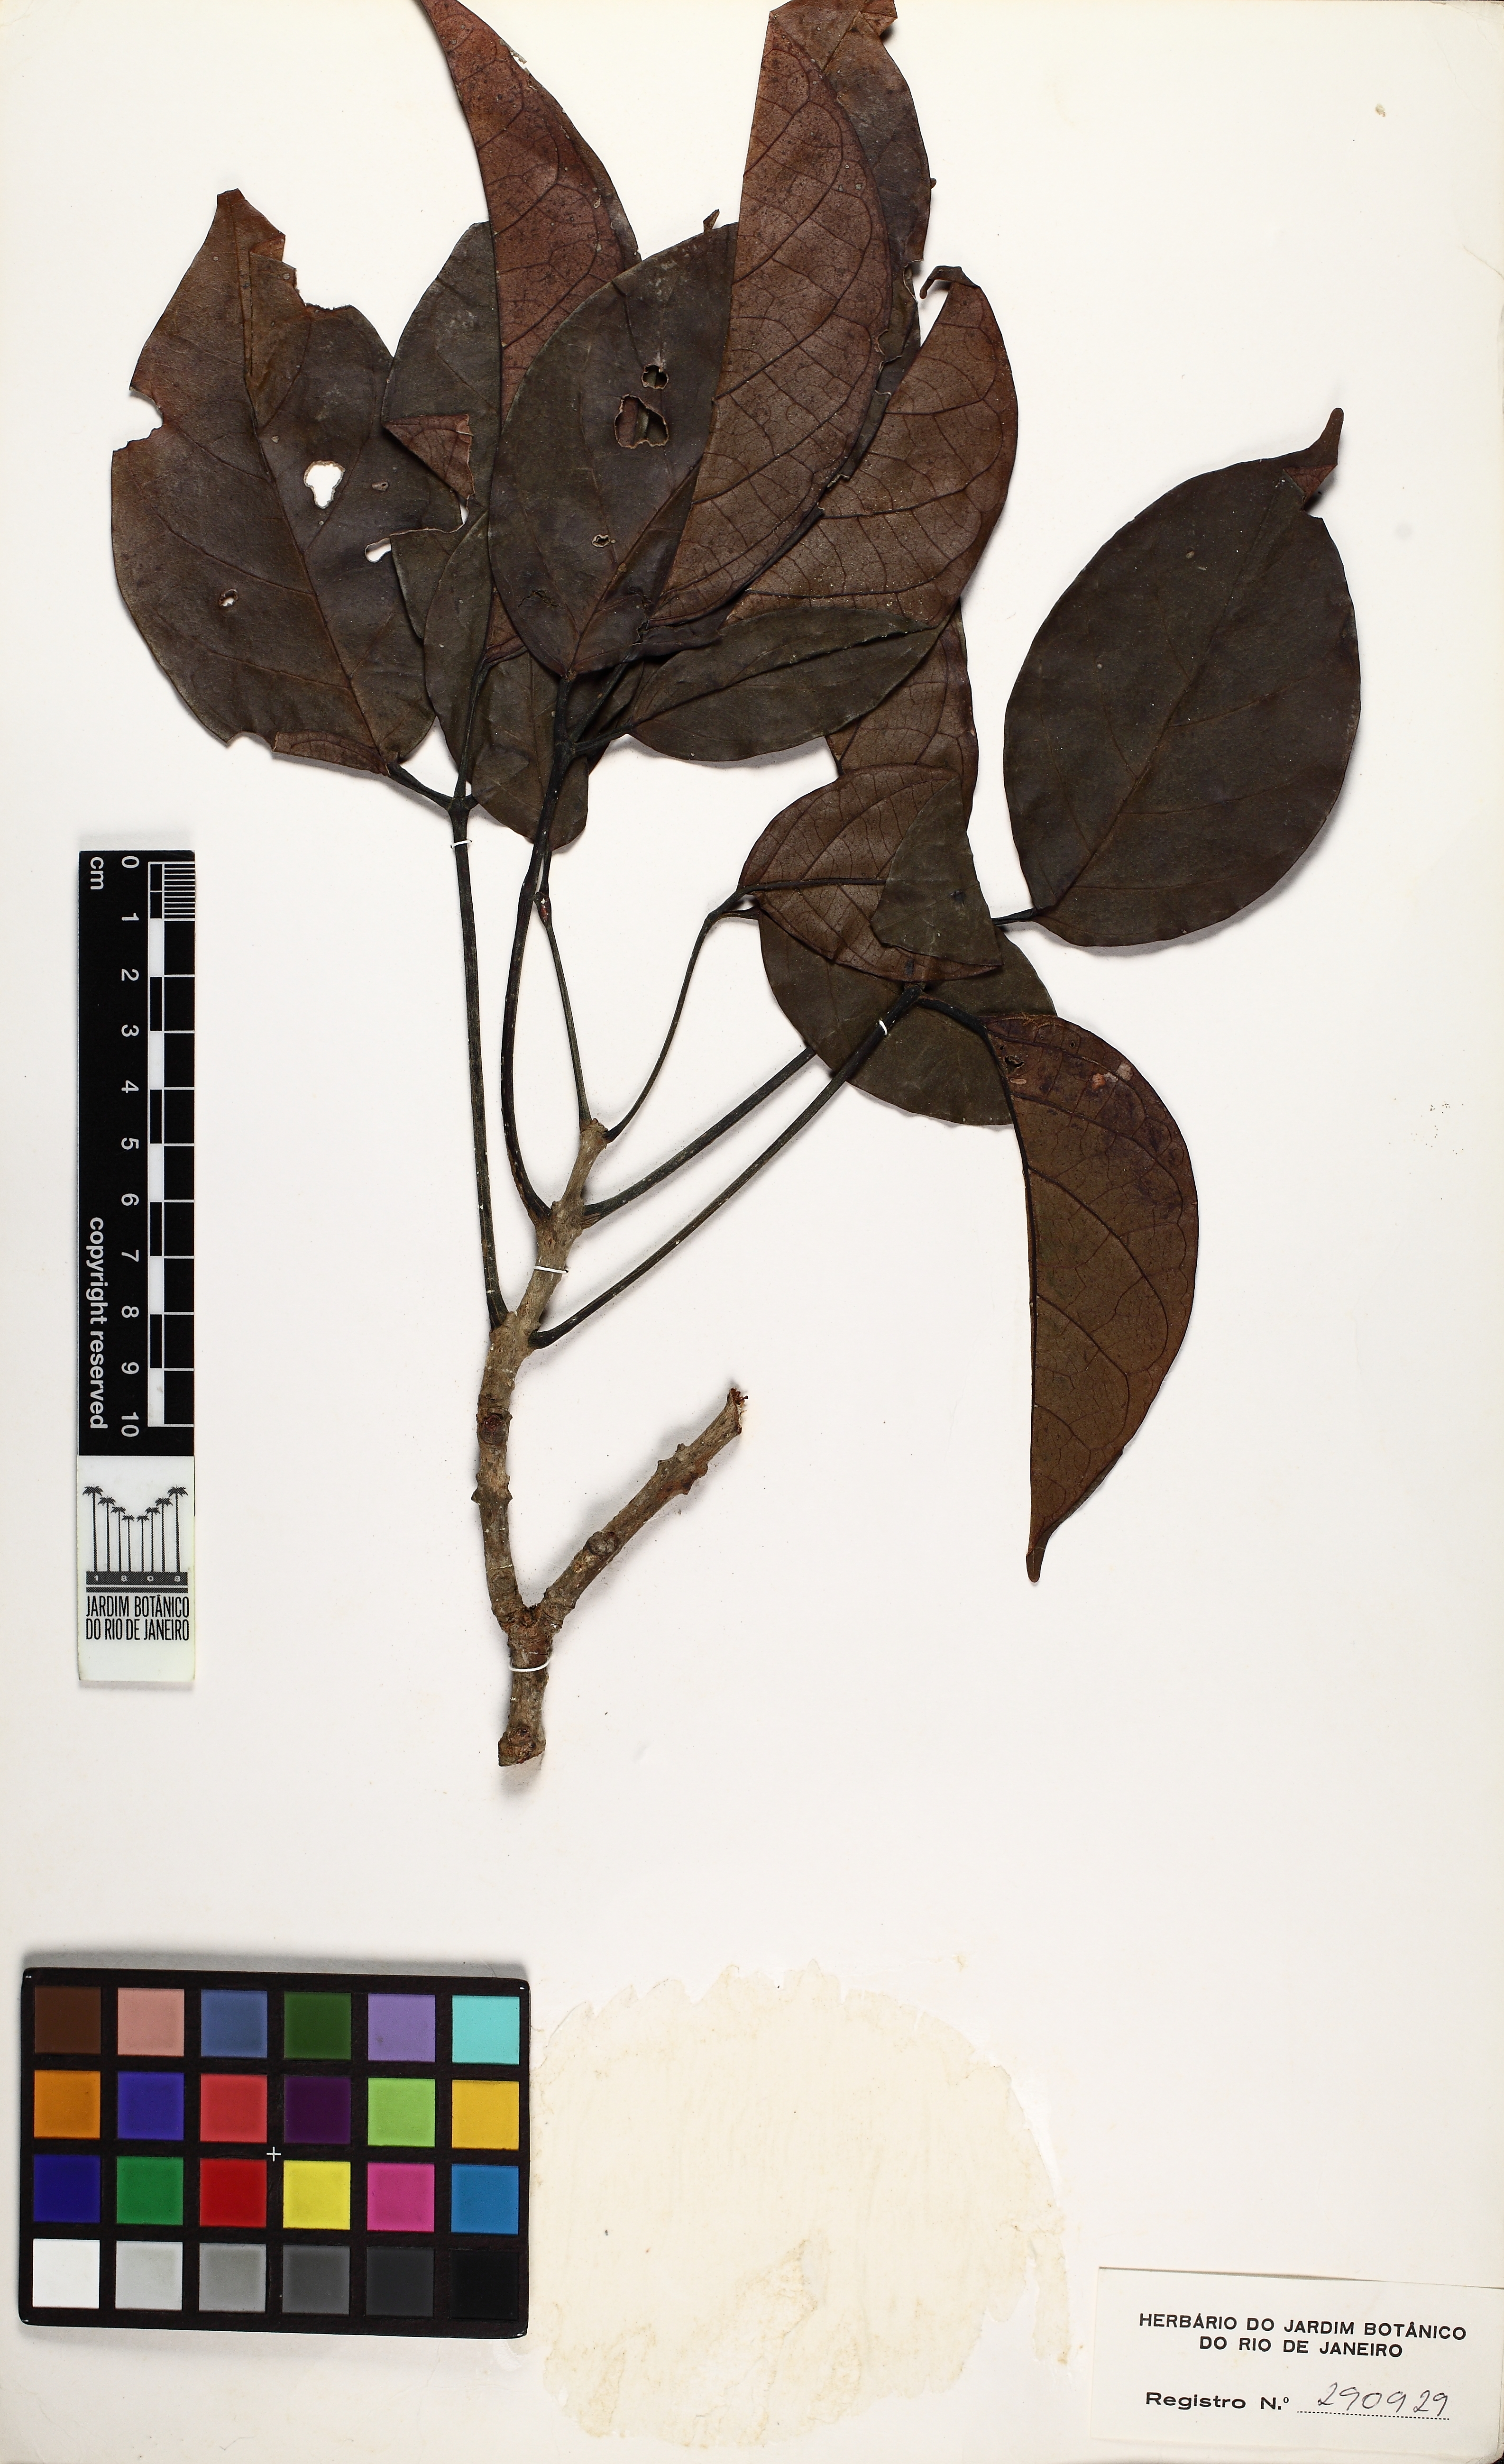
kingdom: Plantae
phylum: Tracheophyta
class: Magnoliopsida
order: Lamiales
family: Bignoniaceae
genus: Callichlamys
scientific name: Callichlamys latifolia
